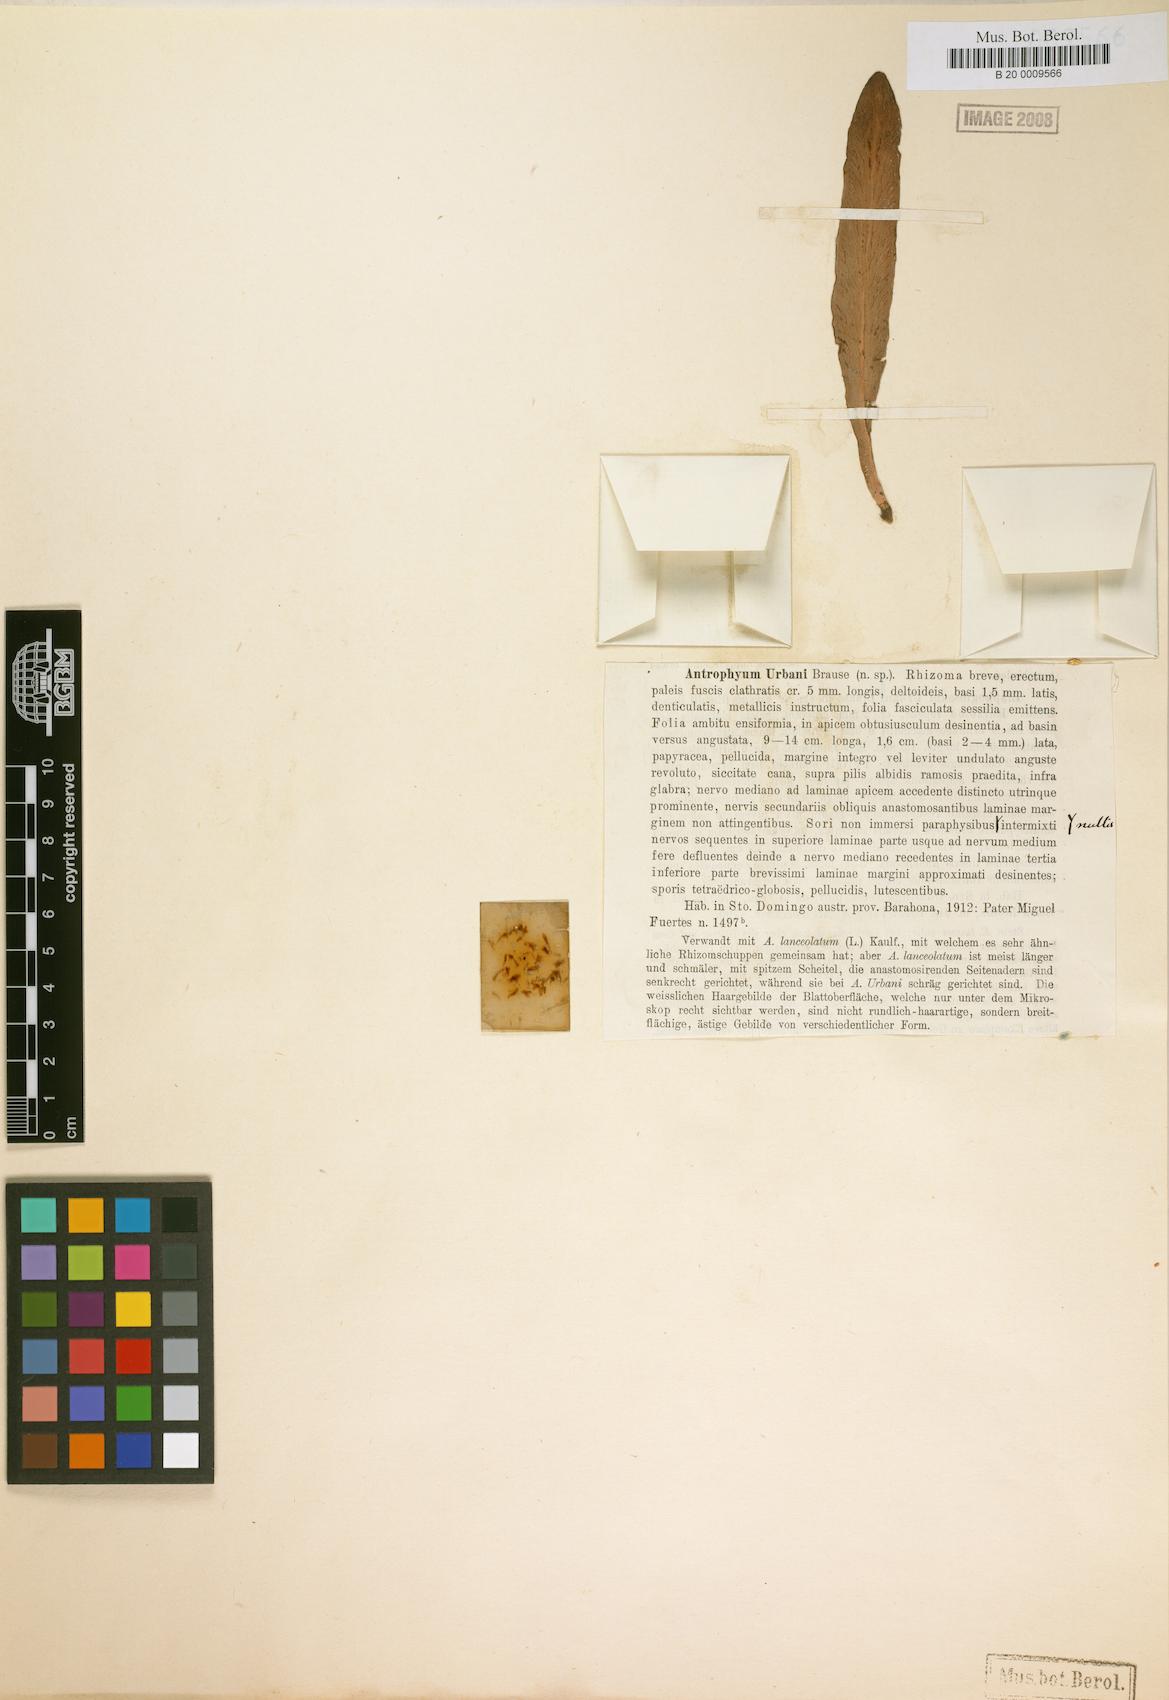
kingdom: Plantae
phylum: Tracheophyta
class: Polypodiopsida
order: Polypodiales
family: Pteridaceae
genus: Polytaenium
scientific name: Polytaenium urbani
